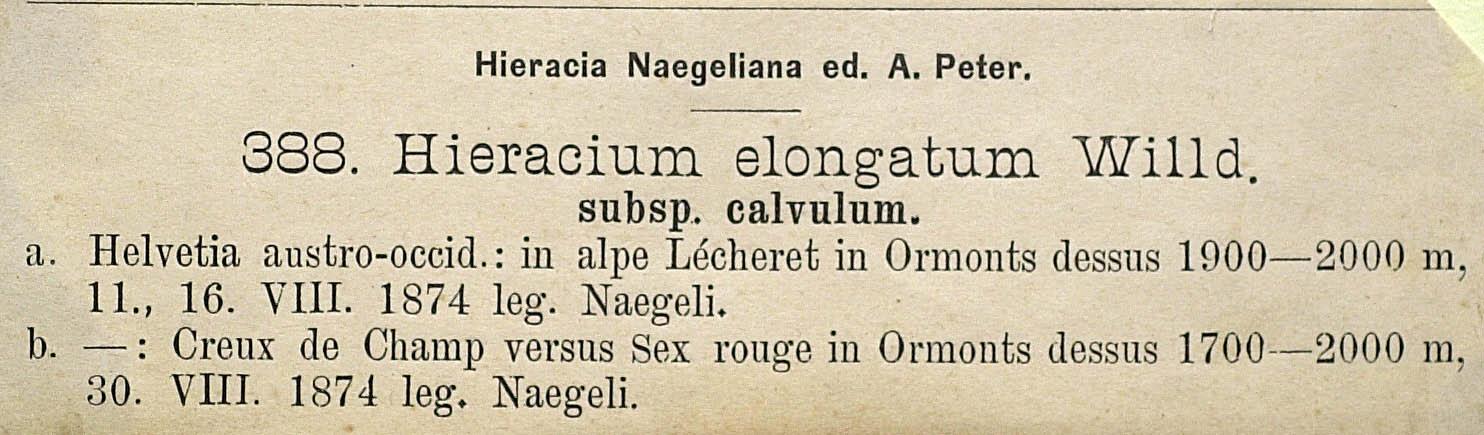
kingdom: Plantae
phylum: Tracheophyta
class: Magnoliopsida
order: Asterales
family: Asteraceae
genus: Hieracium
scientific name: Hieracium valdepilosum
